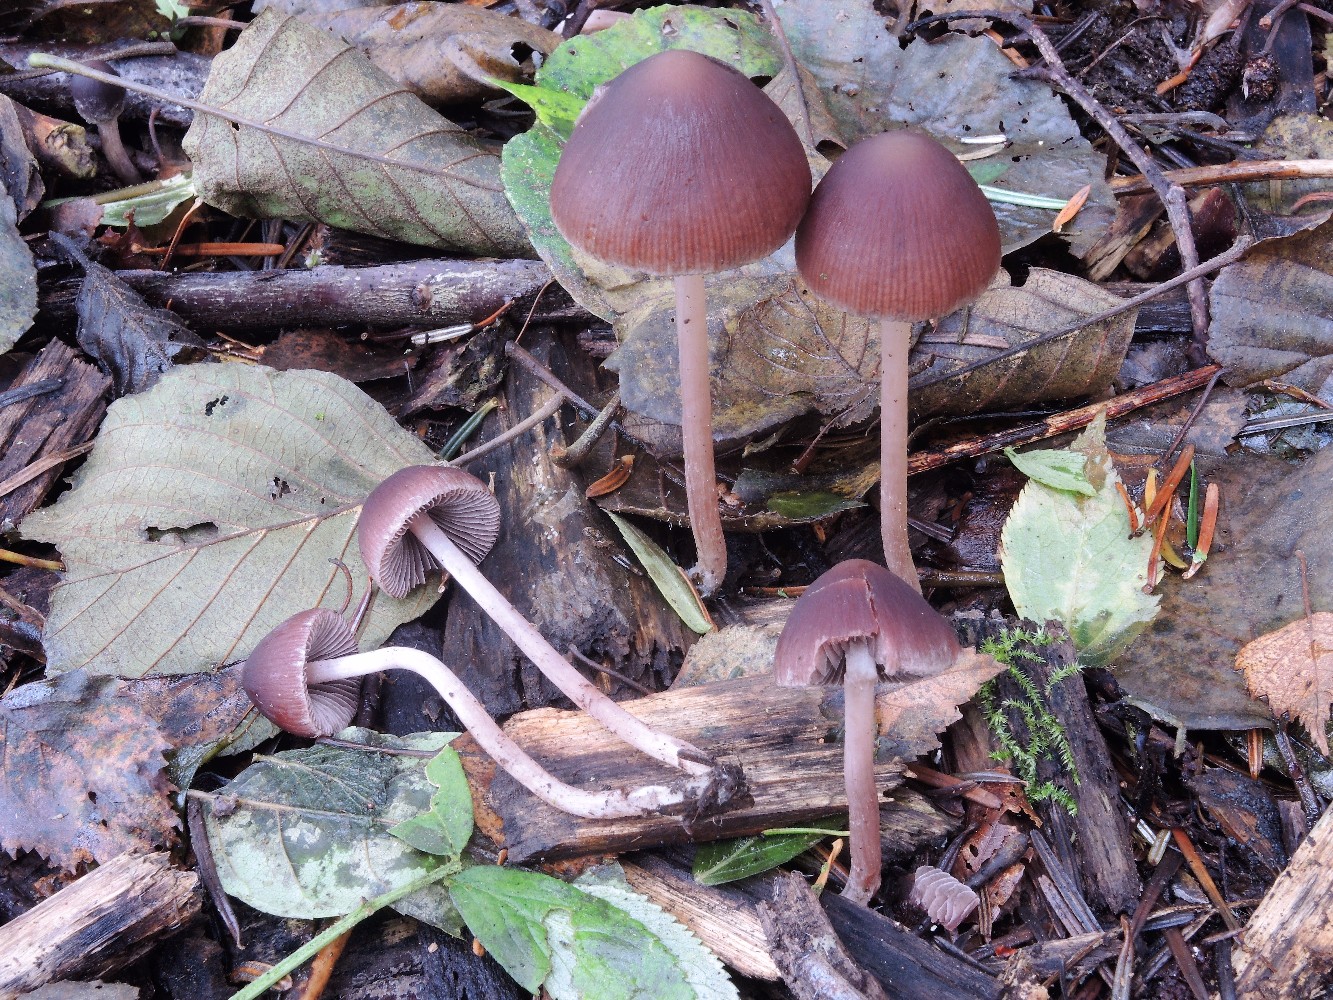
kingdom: Fungi
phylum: Basidiomycota
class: Agaricomycetes
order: Agaricales
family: Psathyrellaceae
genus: Psathyrella
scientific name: Psathyrella bipellis
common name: vinrød mørkhat
